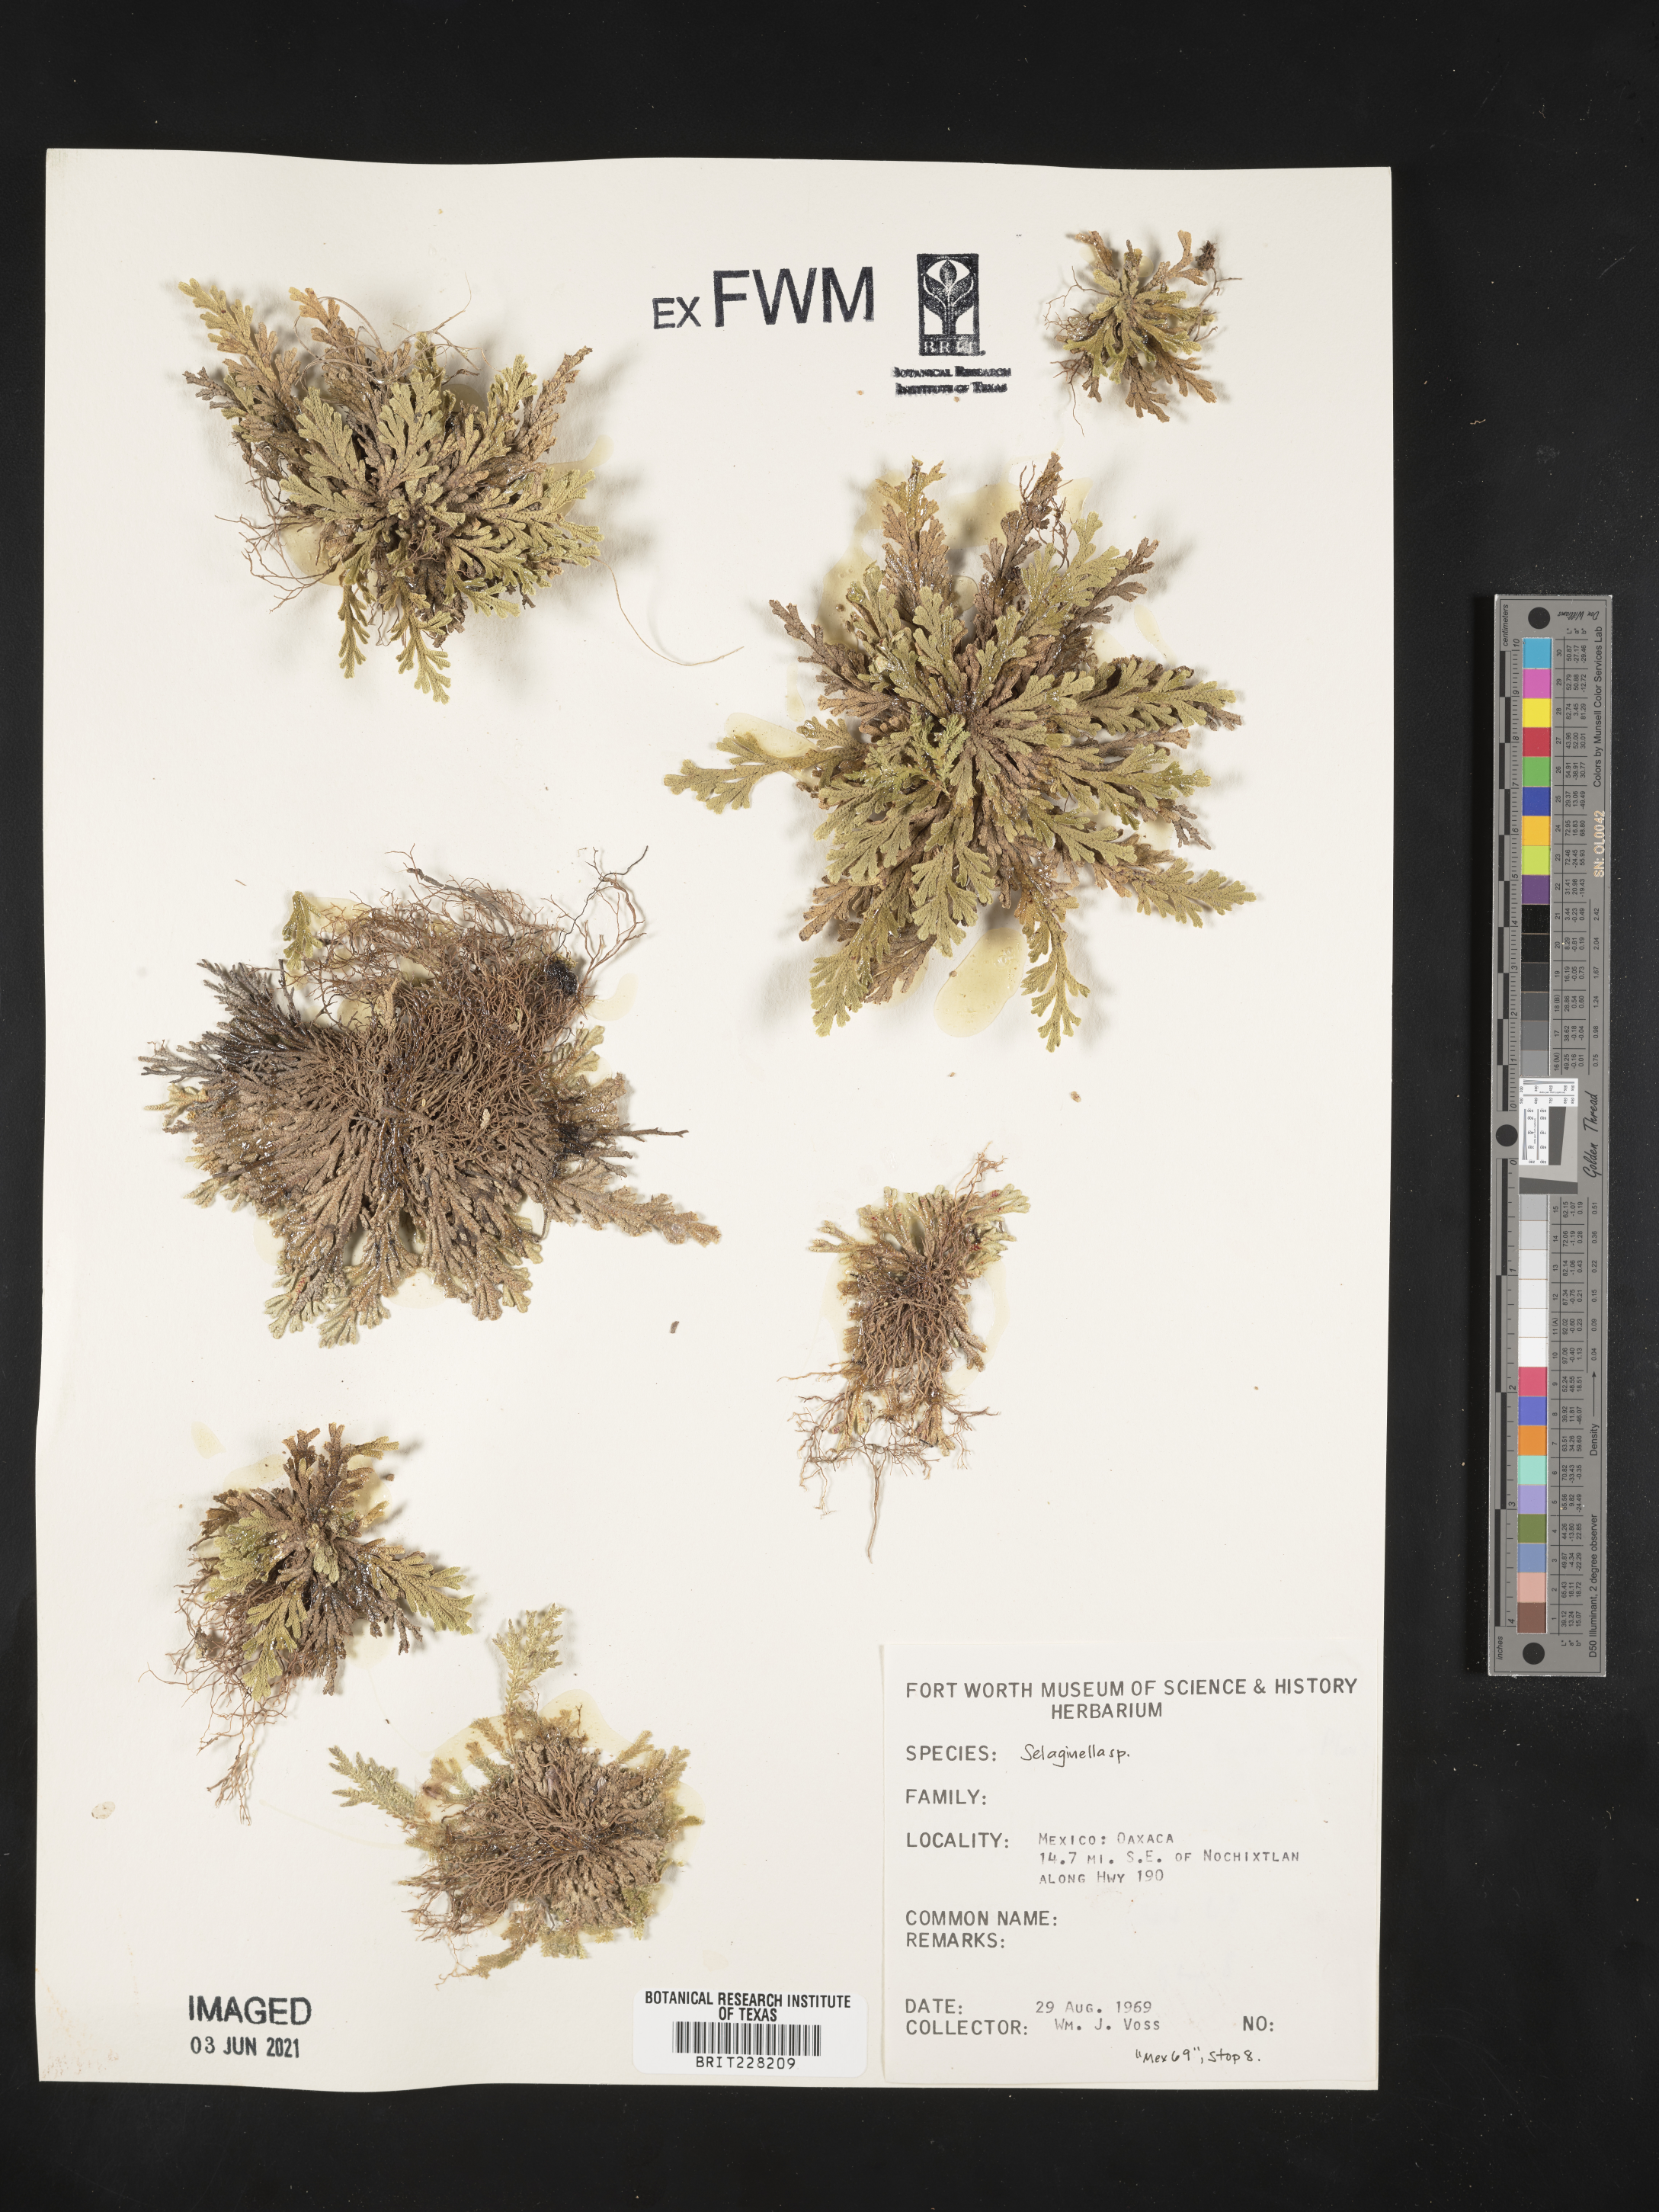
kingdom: Plantae
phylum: Tracheophyta
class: Lycopodiopsida
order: Selaginellales
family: Selaginellaceae
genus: Selaginella
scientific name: Selaginella
